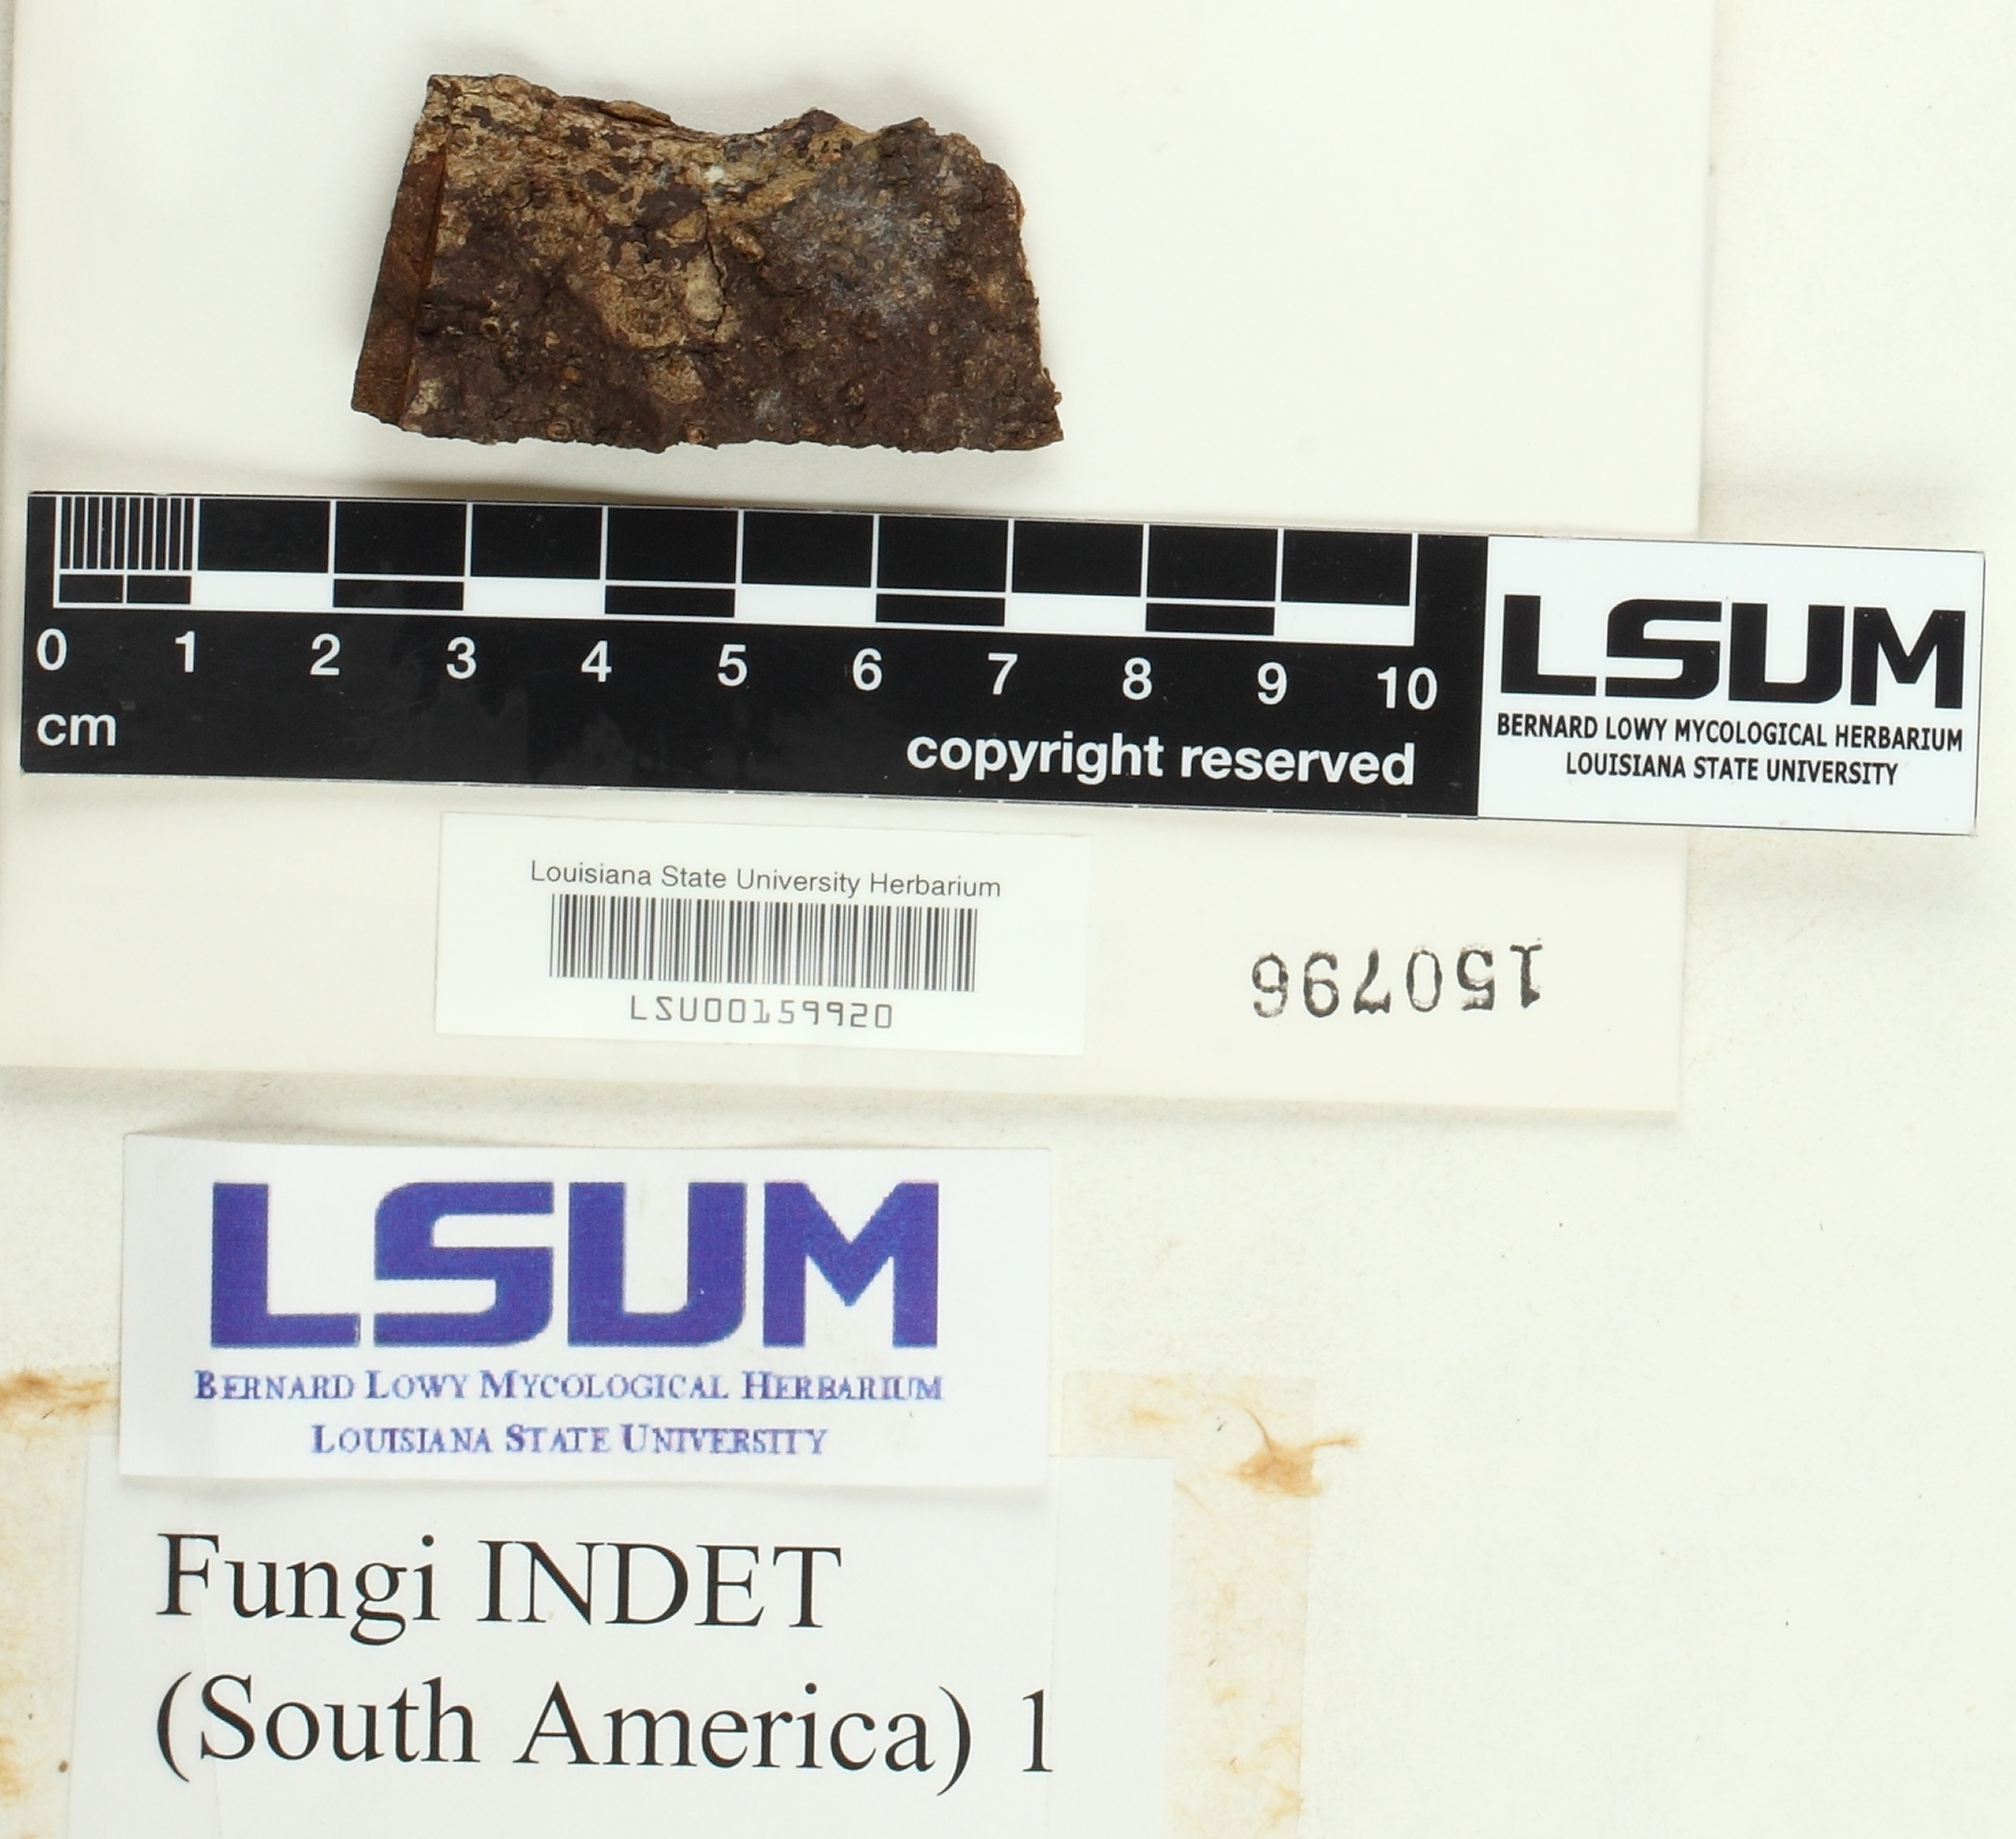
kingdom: Fungi
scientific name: Fungi
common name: Fungi
